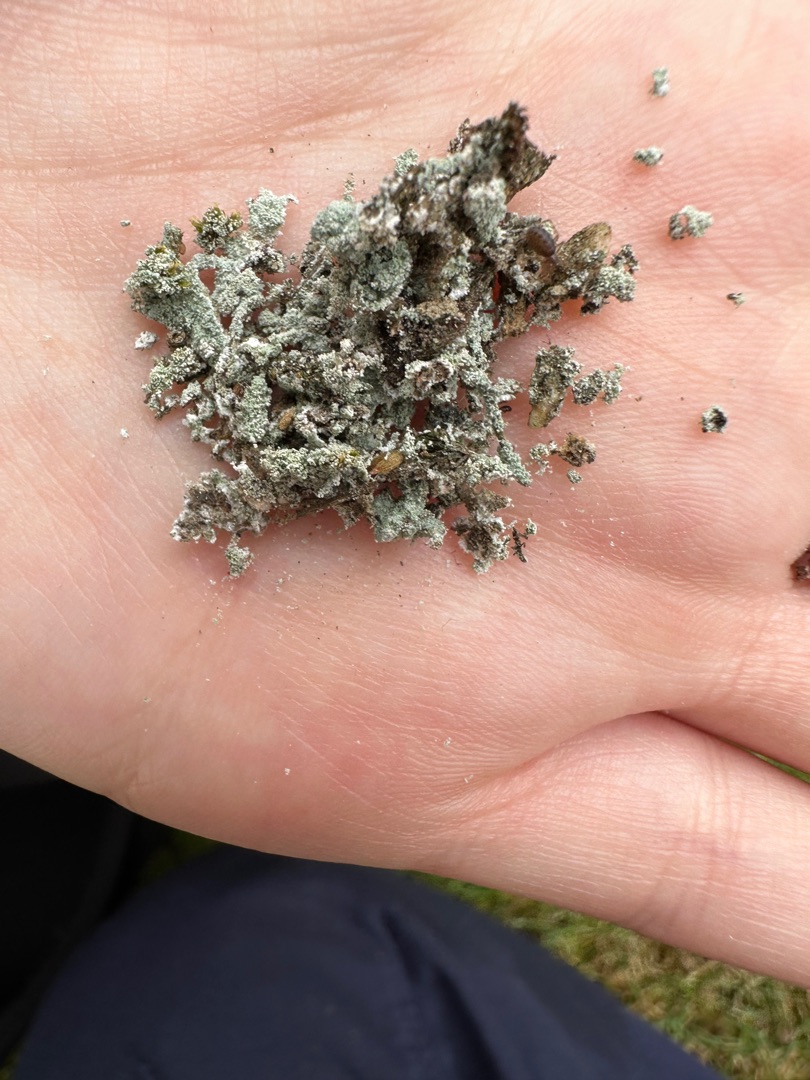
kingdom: Fungi
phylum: Ascomycota
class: Lecanoromycetes
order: Lecanorales
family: Stereocaulaceae
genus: Lepraria
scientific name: Lepraria
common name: Støvlav
